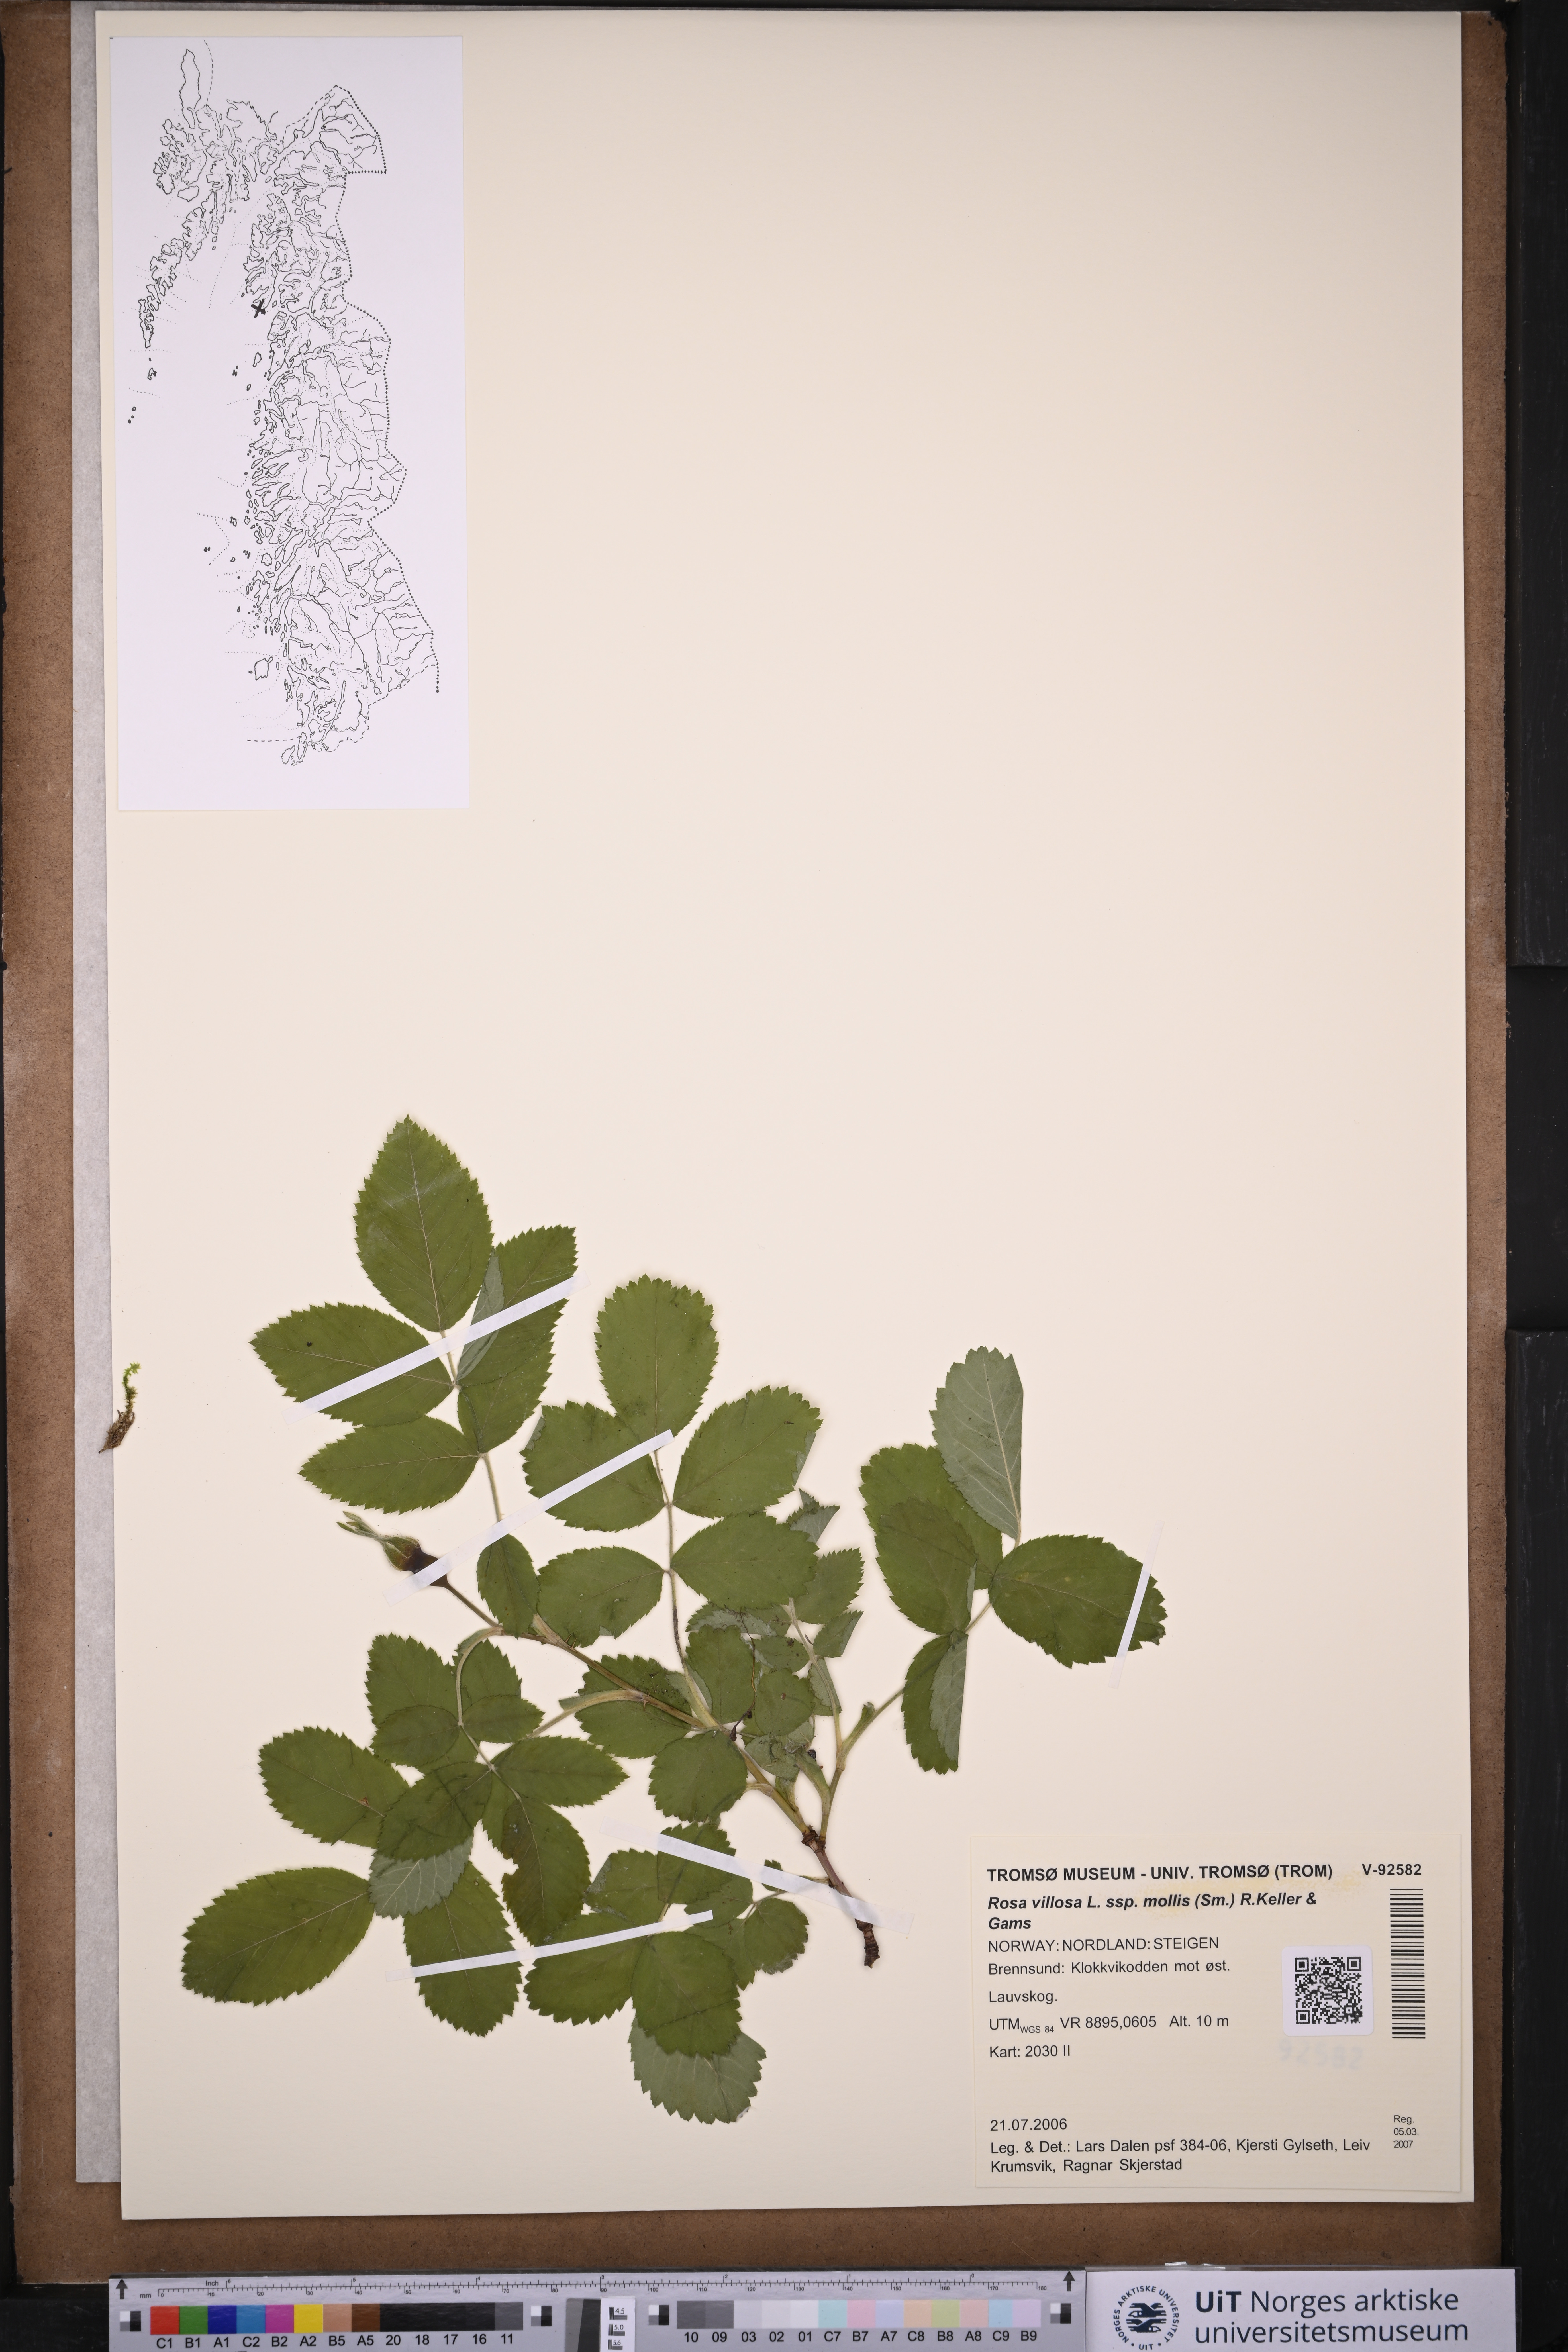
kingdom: Plantae
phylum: Tracheophyta
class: Magnoliopsida
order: Rosales
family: Rosaceae
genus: Rosa
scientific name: Rosa mollis
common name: Rose
